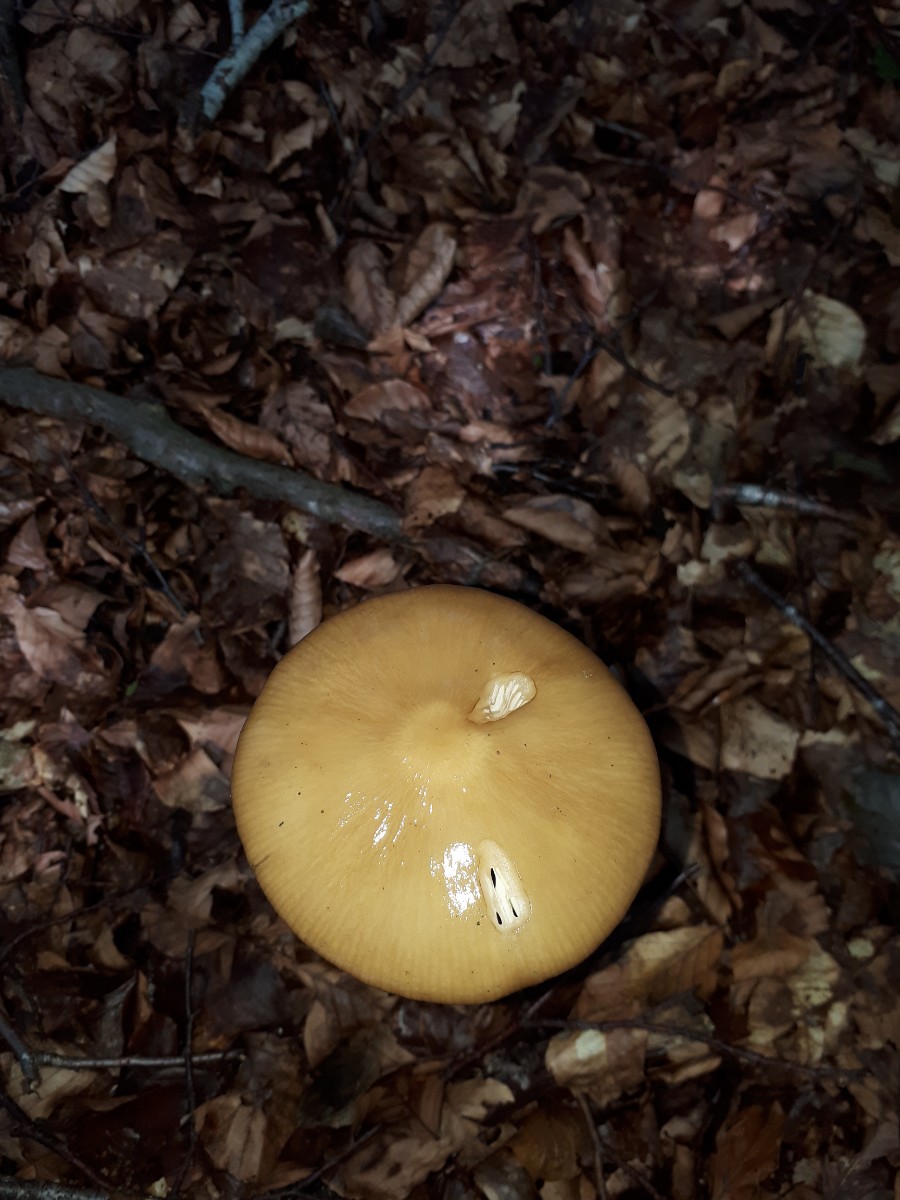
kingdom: Fungi
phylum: Basidiomycota
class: Agaricomycetes
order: Agaricales
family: Physalacriaceae
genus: Hymenopellis
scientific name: Hymenopellis radicata
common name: almindelig pælerodshat
